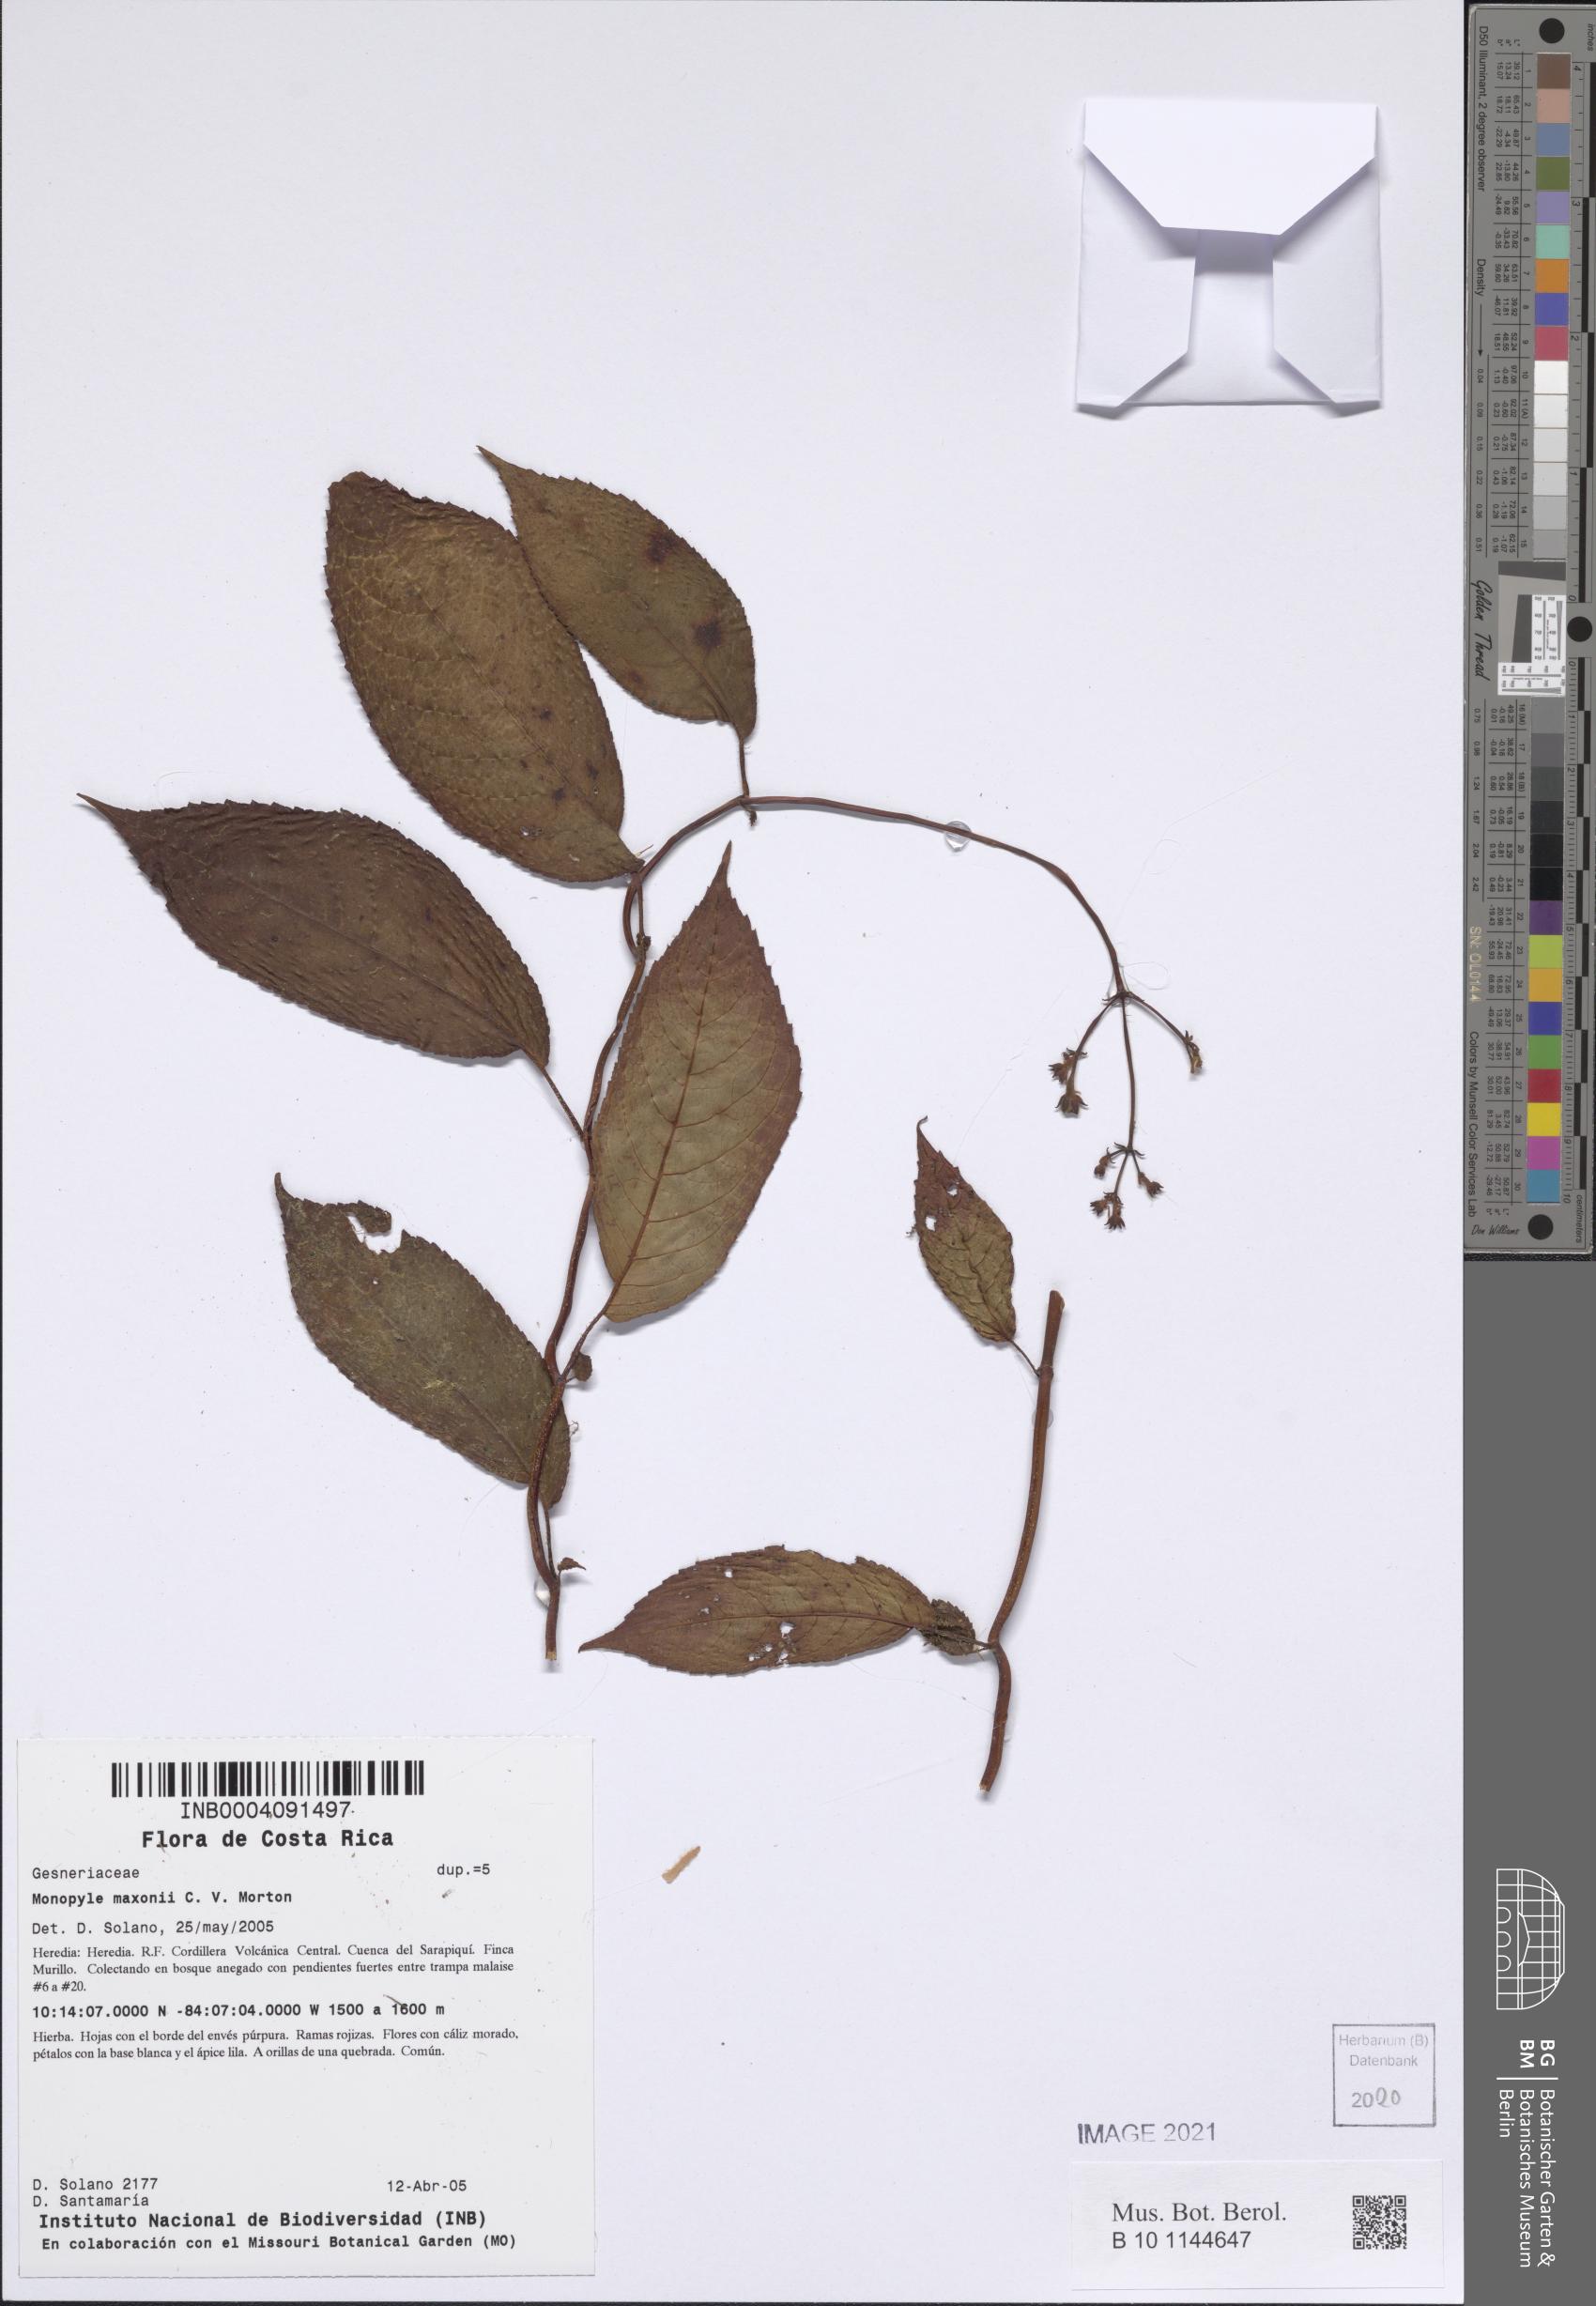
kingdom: Plantae
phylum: Tracheophyta
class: Magnoliopsida
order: Lamiales
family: Gesneriaceae
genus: Monopyle
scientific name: Monopyle maxonii
